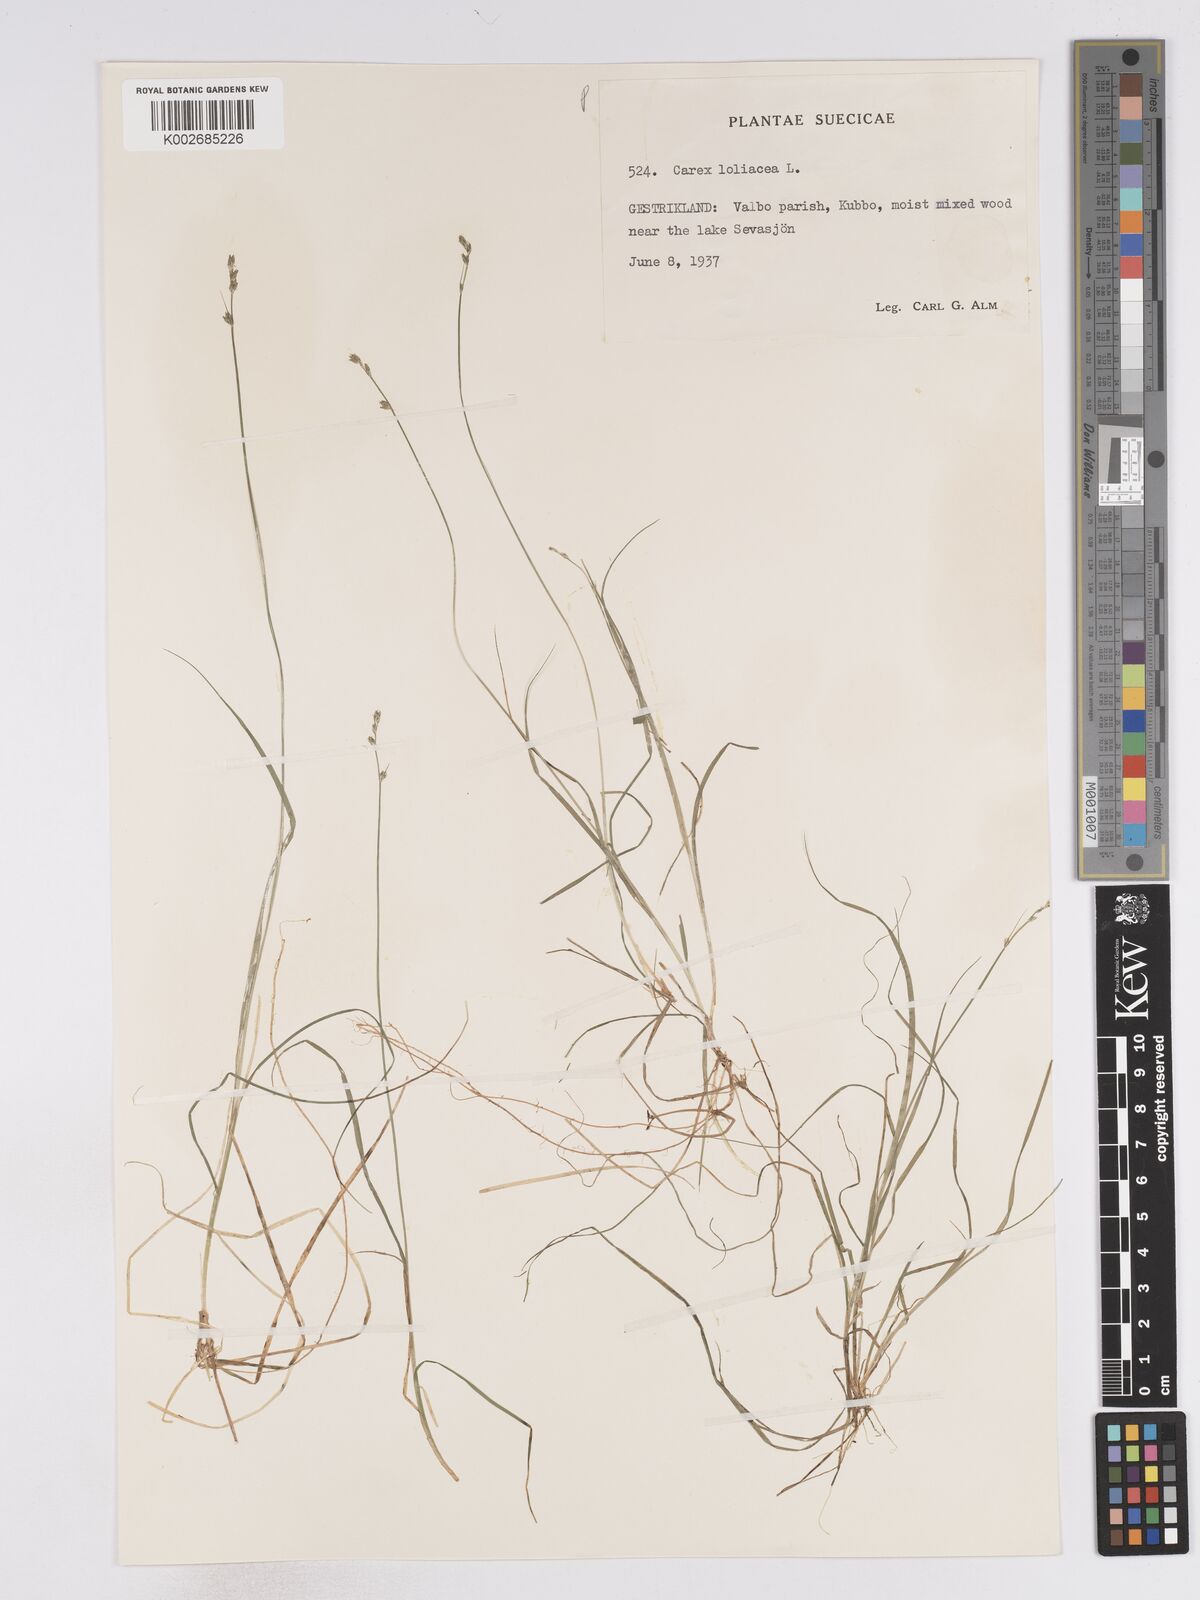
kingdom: Plantae
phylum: Tracheophyta
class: Liliopsida
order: Poales
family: Cyperaceae
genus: Carex
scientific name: Carex loliacea
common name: Ryegrass sedge
